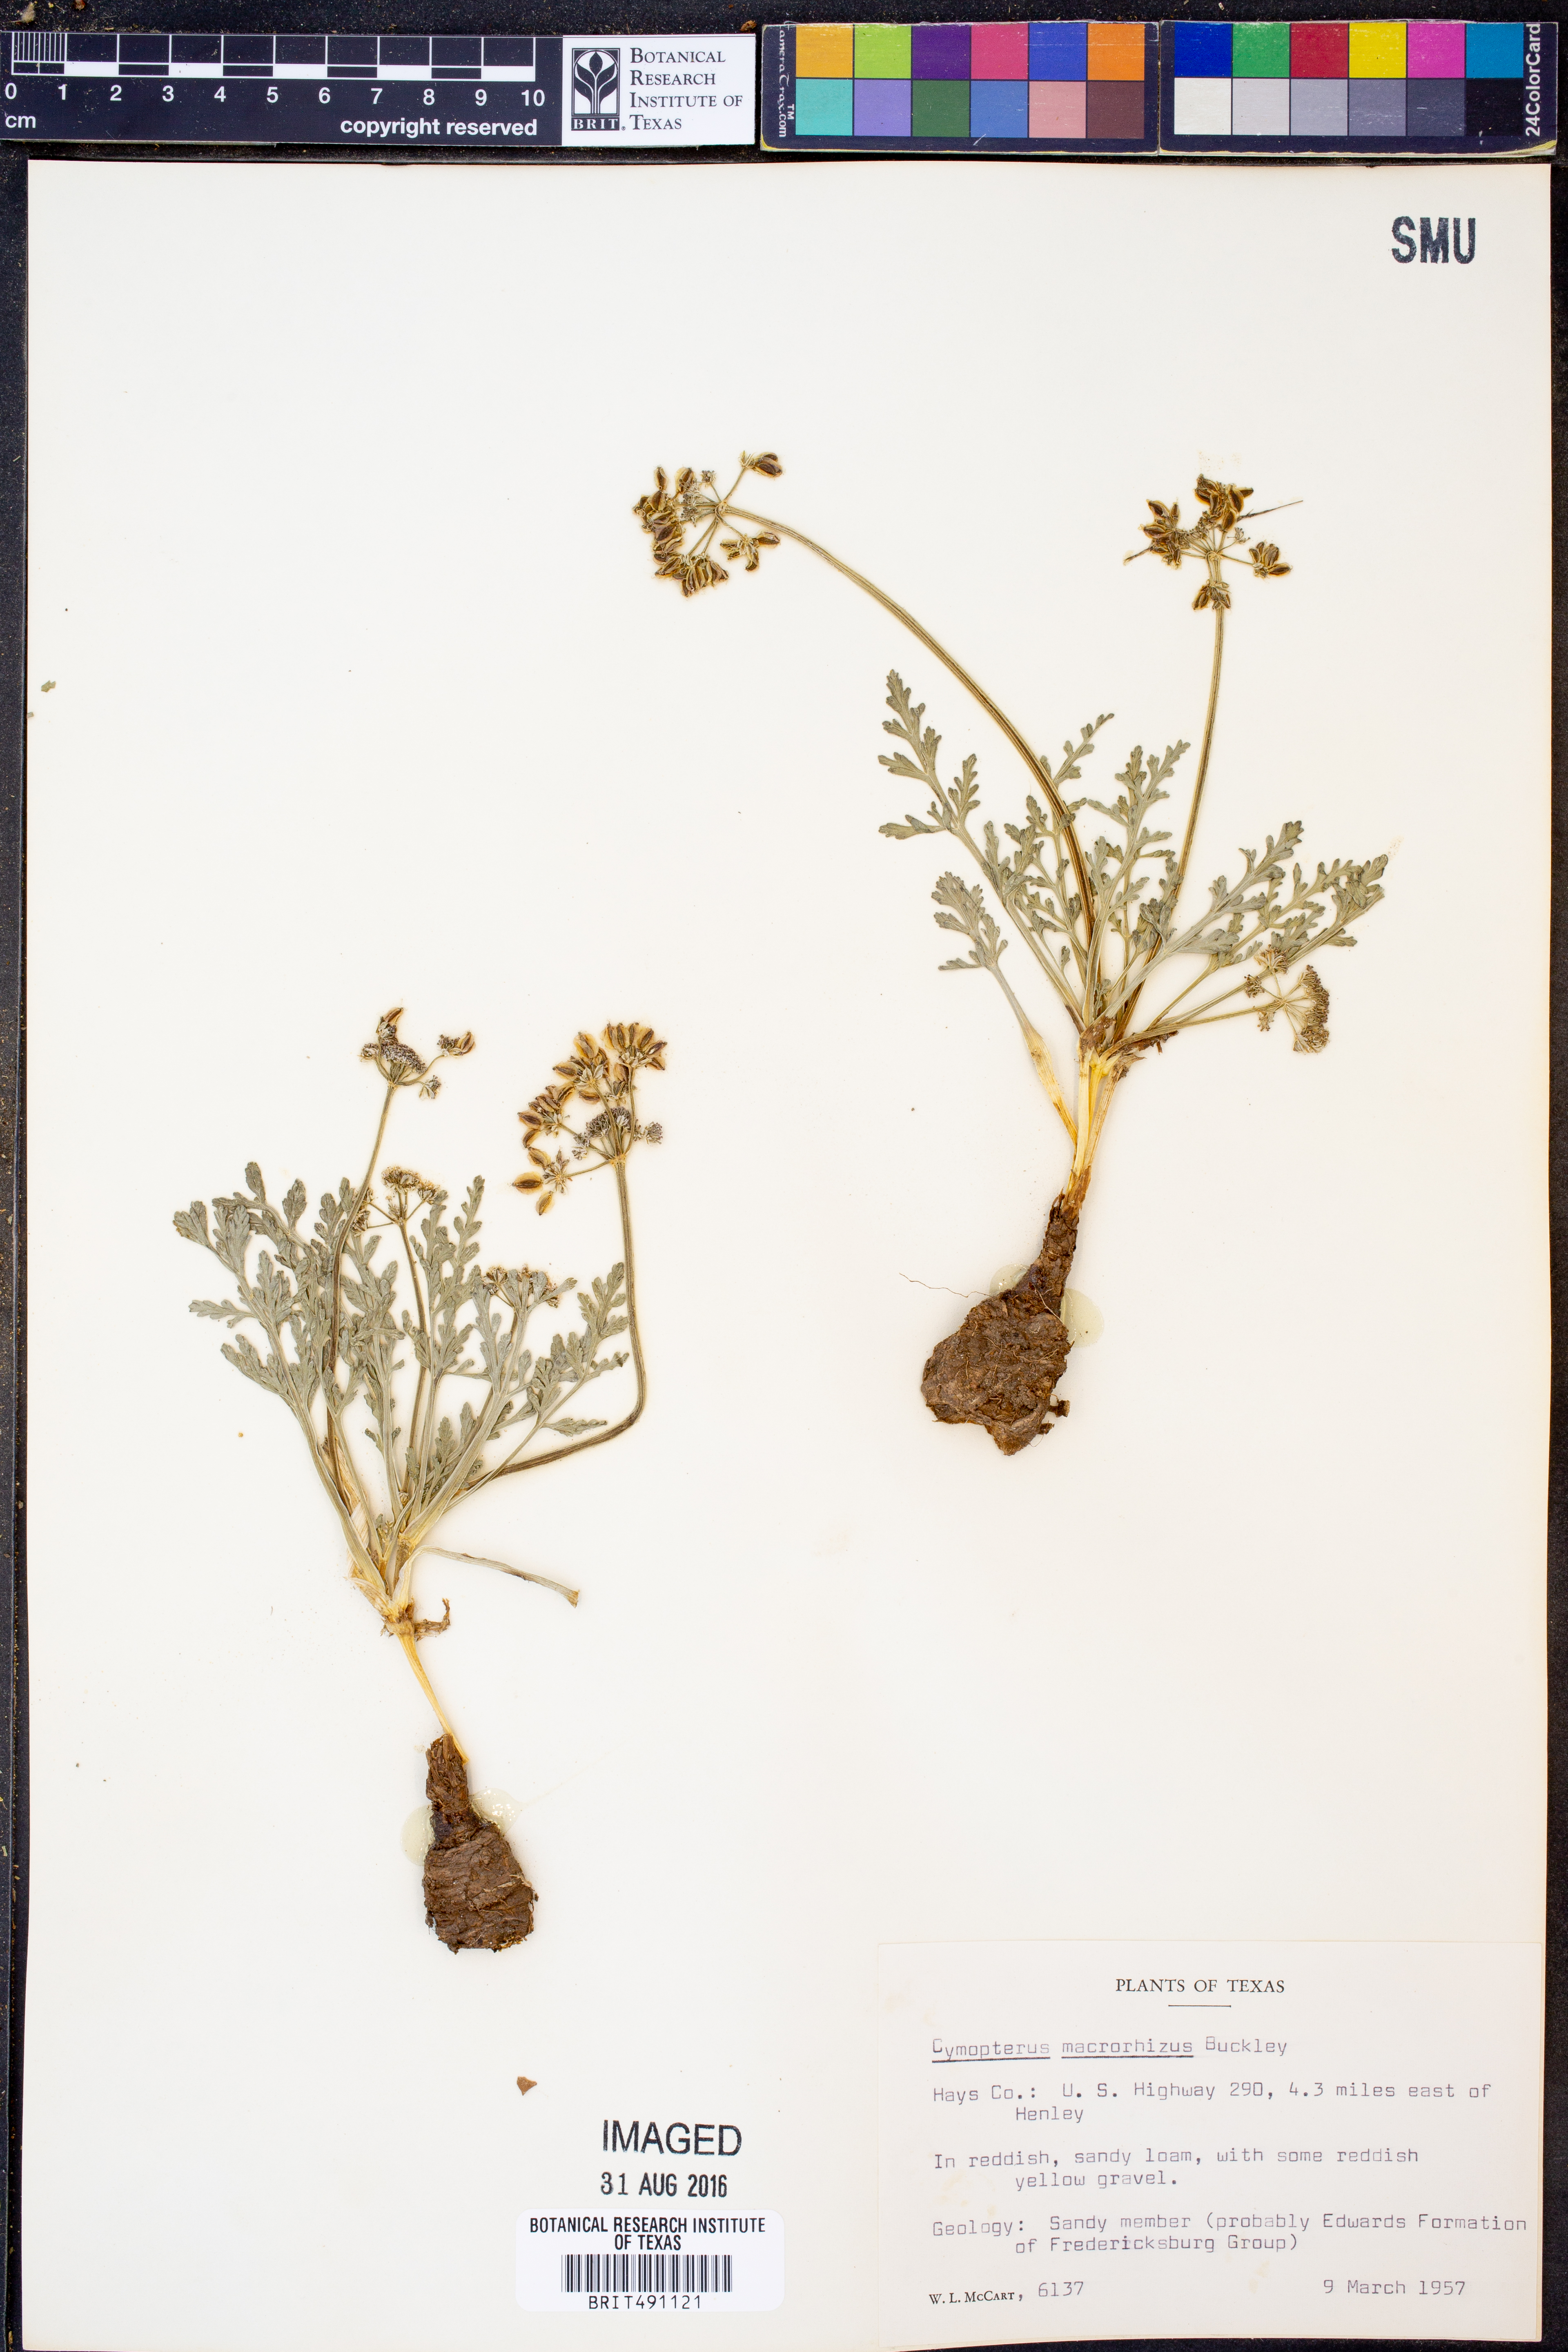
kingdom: Plantae
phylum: Tracheophyta
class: Magnoliopsida
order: Apiales
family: Apiaceae
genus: Vesper
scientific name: Vesper macrorhizus
